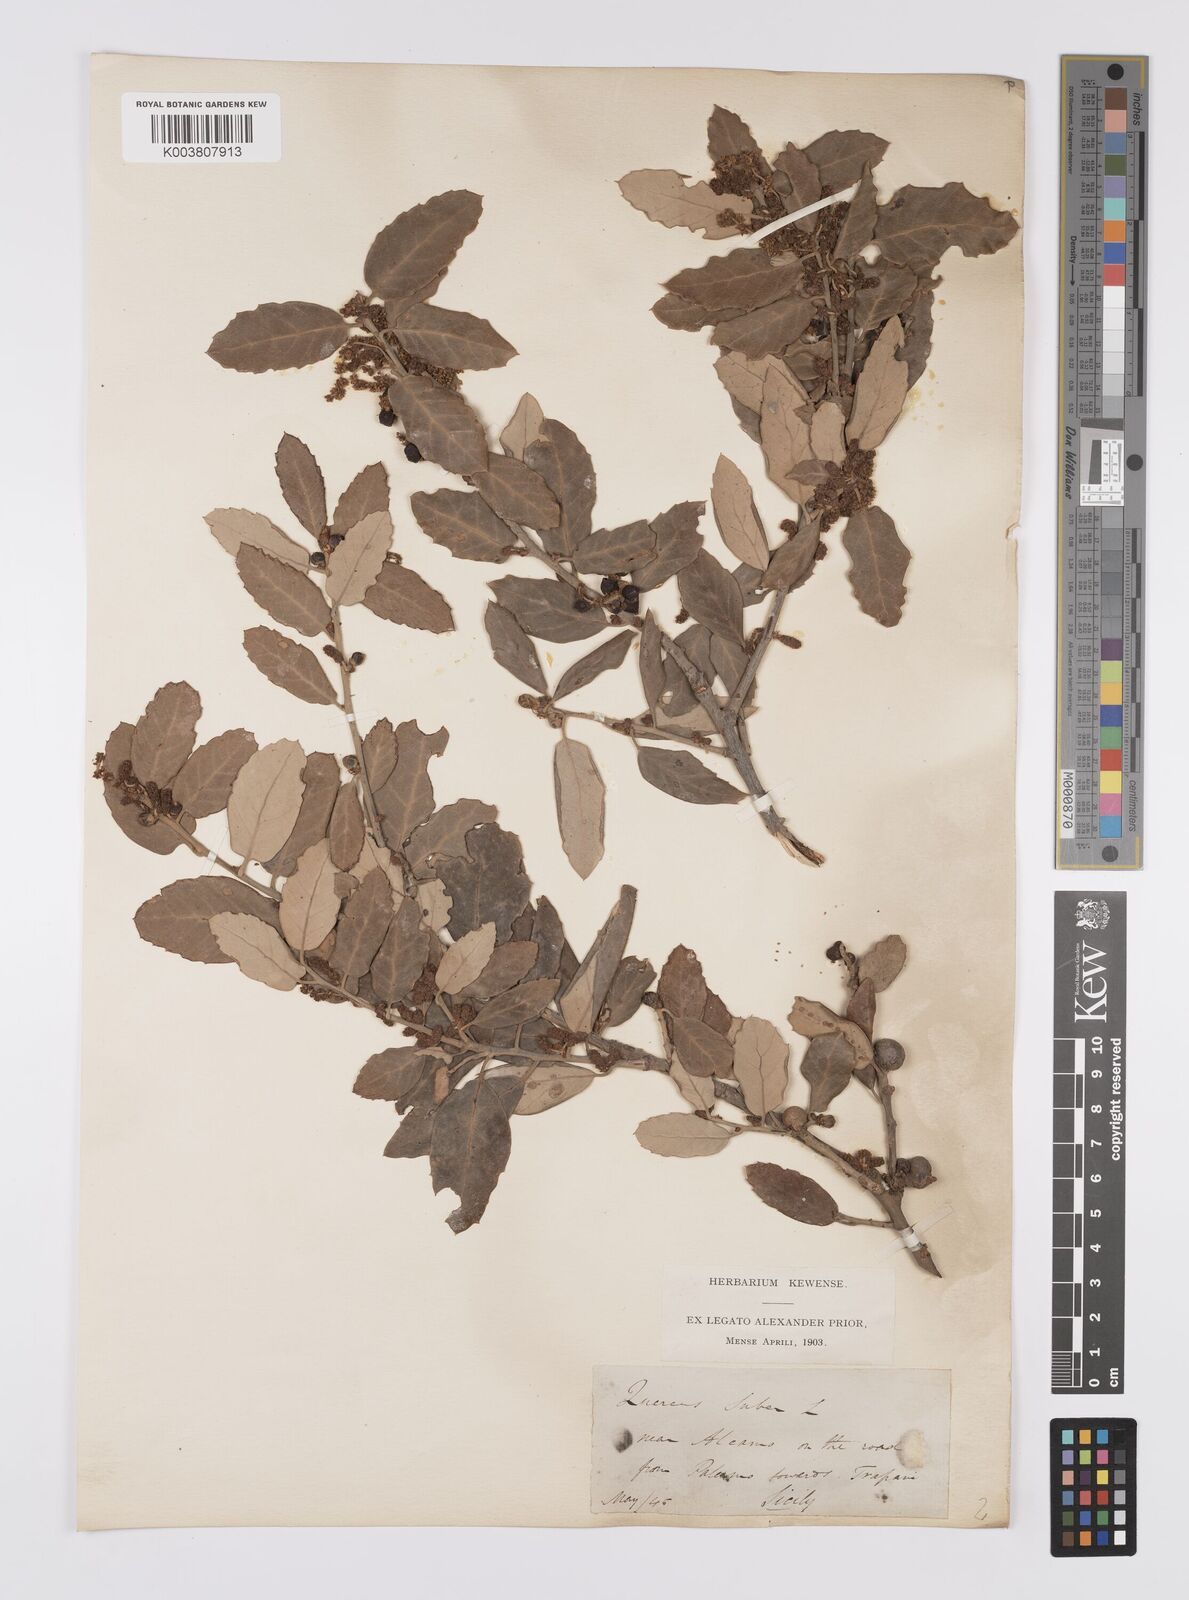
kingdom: Plantae
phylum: Tracheophyta
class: Magnoliopsida
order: Fagales
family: Fagaceae
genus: Quercus
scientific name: Quercus suber
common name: Cork oak
